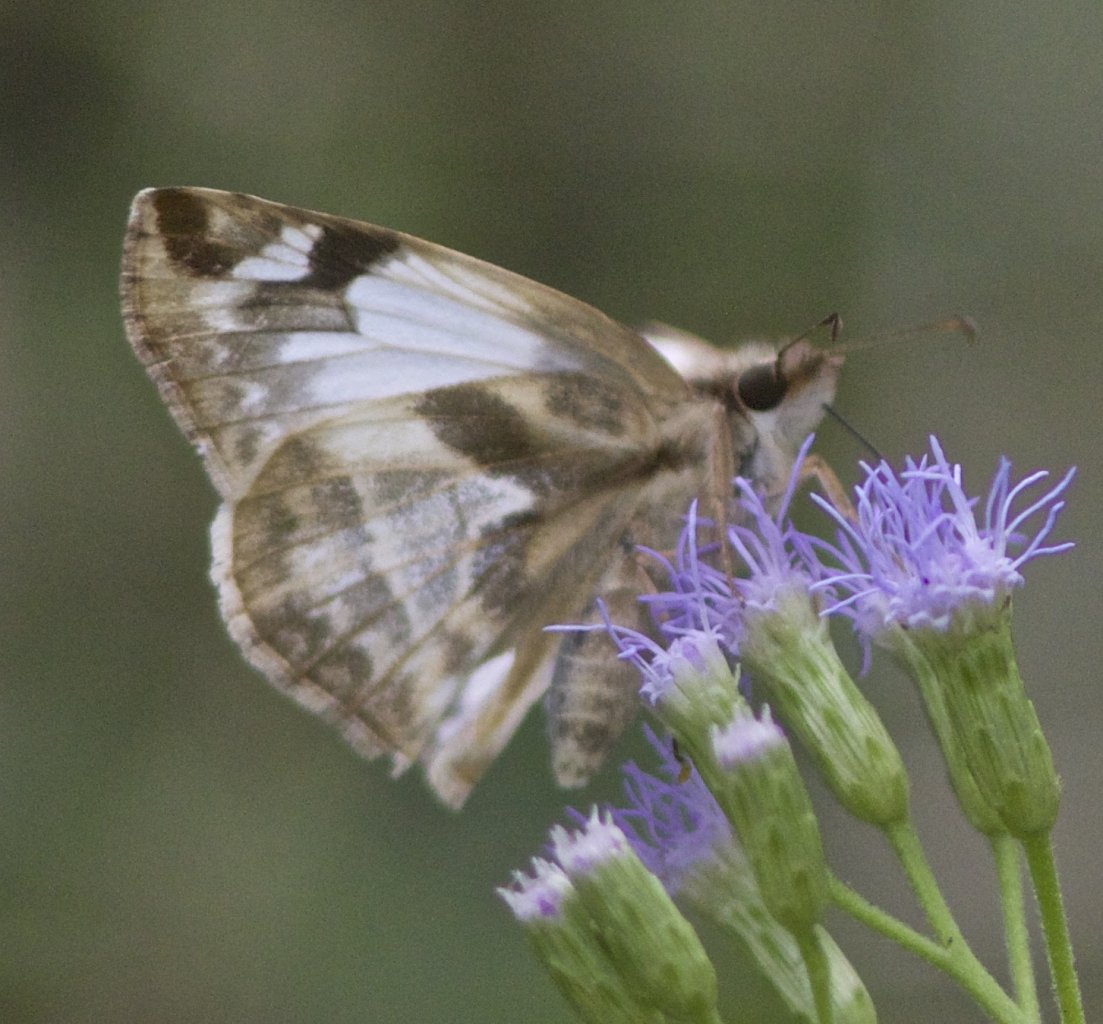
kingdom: Animalia
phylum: Arthropoda
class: Insecta
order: Lepidoptera
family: Hesperiidae
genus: Heliopetes
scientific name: Heliopetes laviana
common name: Laviana White-Skipper
